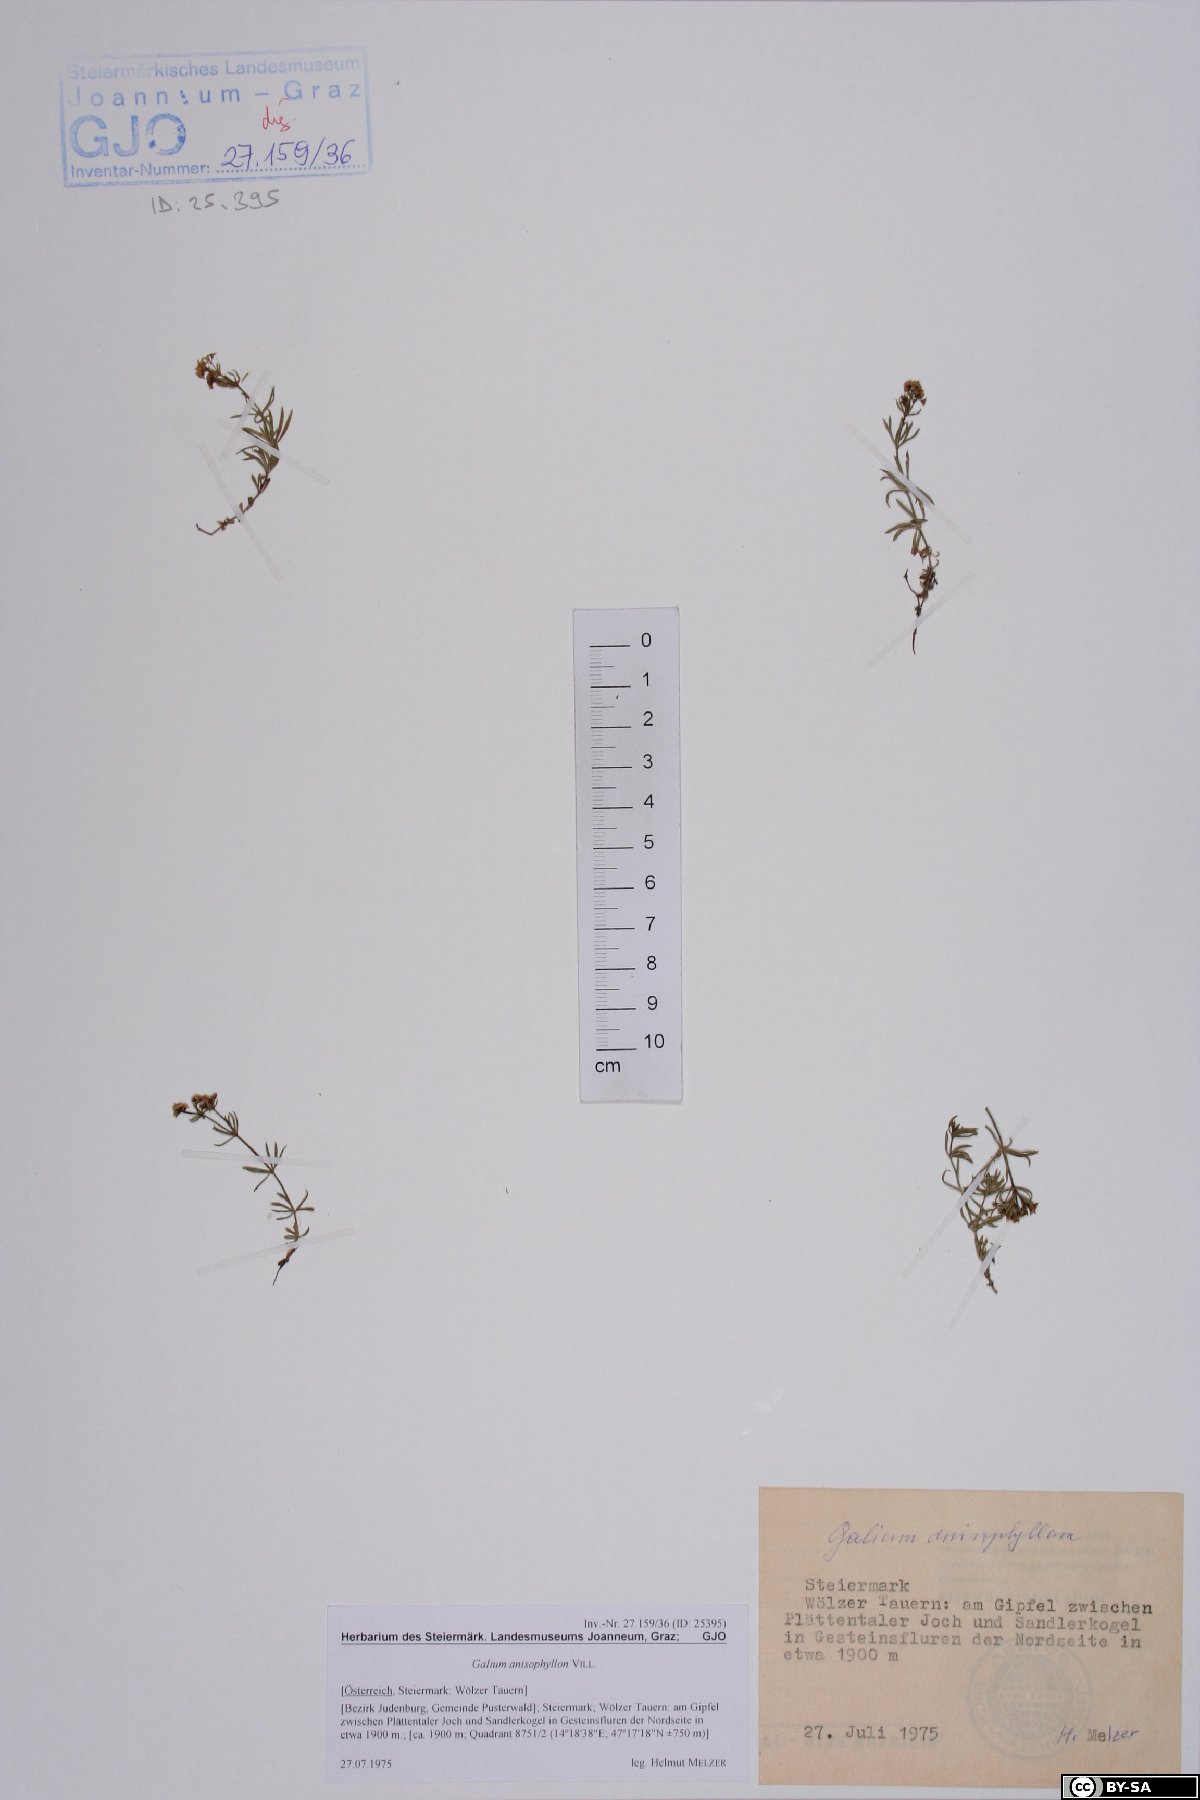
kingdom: Plantae
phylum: Tracheophyta
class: Magnoliopsida
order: Gentianales
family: Rubiaceae
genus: Galium
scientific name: Galium anisophyllon
